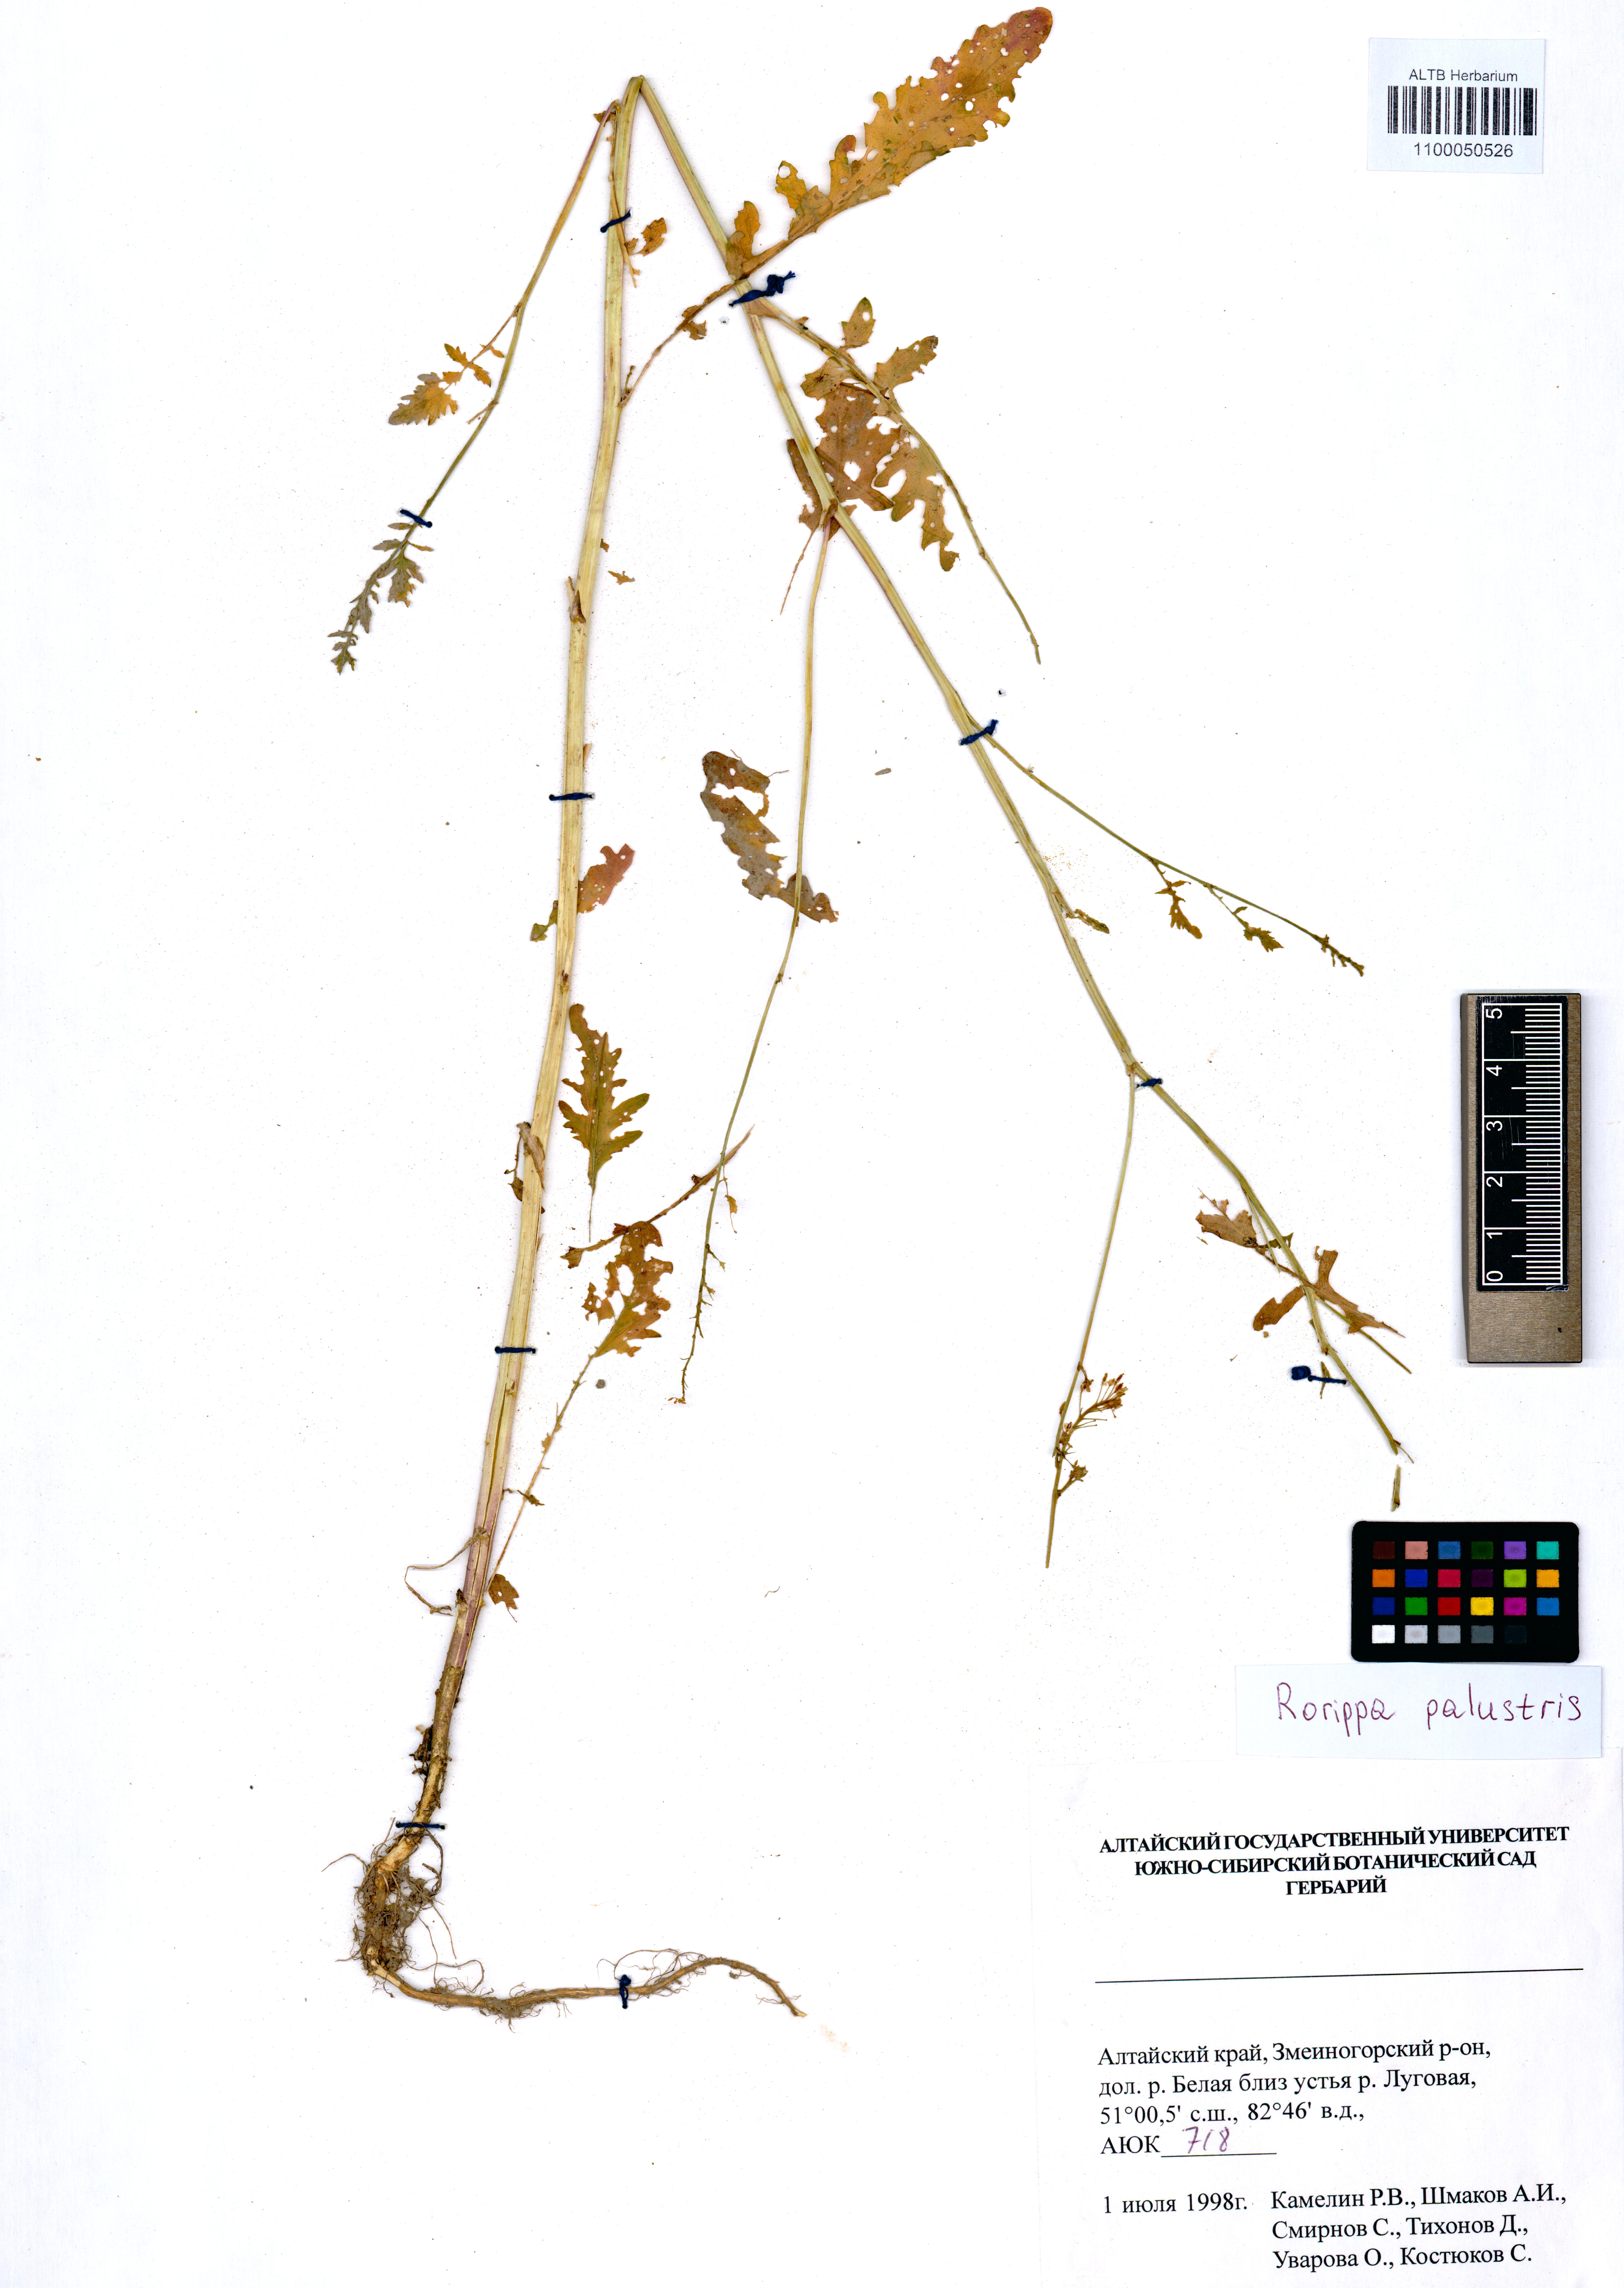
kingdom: Plantae
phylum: Tracheophyta
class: Magnoliopsida
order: Brassicales
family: Brassicaceae
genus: Rorippa
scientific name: Rorippa palustris
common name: Marsh yellow-cress
